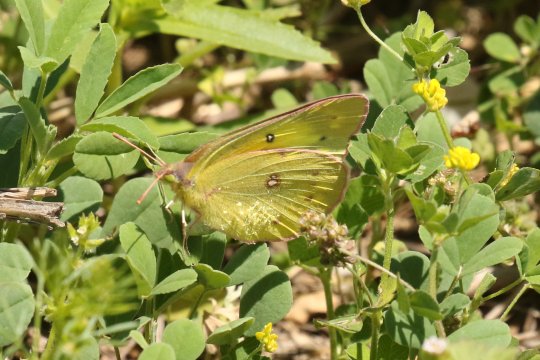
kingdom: Animalia
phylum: Arthropoda
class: Insecta
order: Lepidoptera
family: Pieridae
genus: Colias
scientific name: Colias eurytheme
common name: Orange Sulphur
